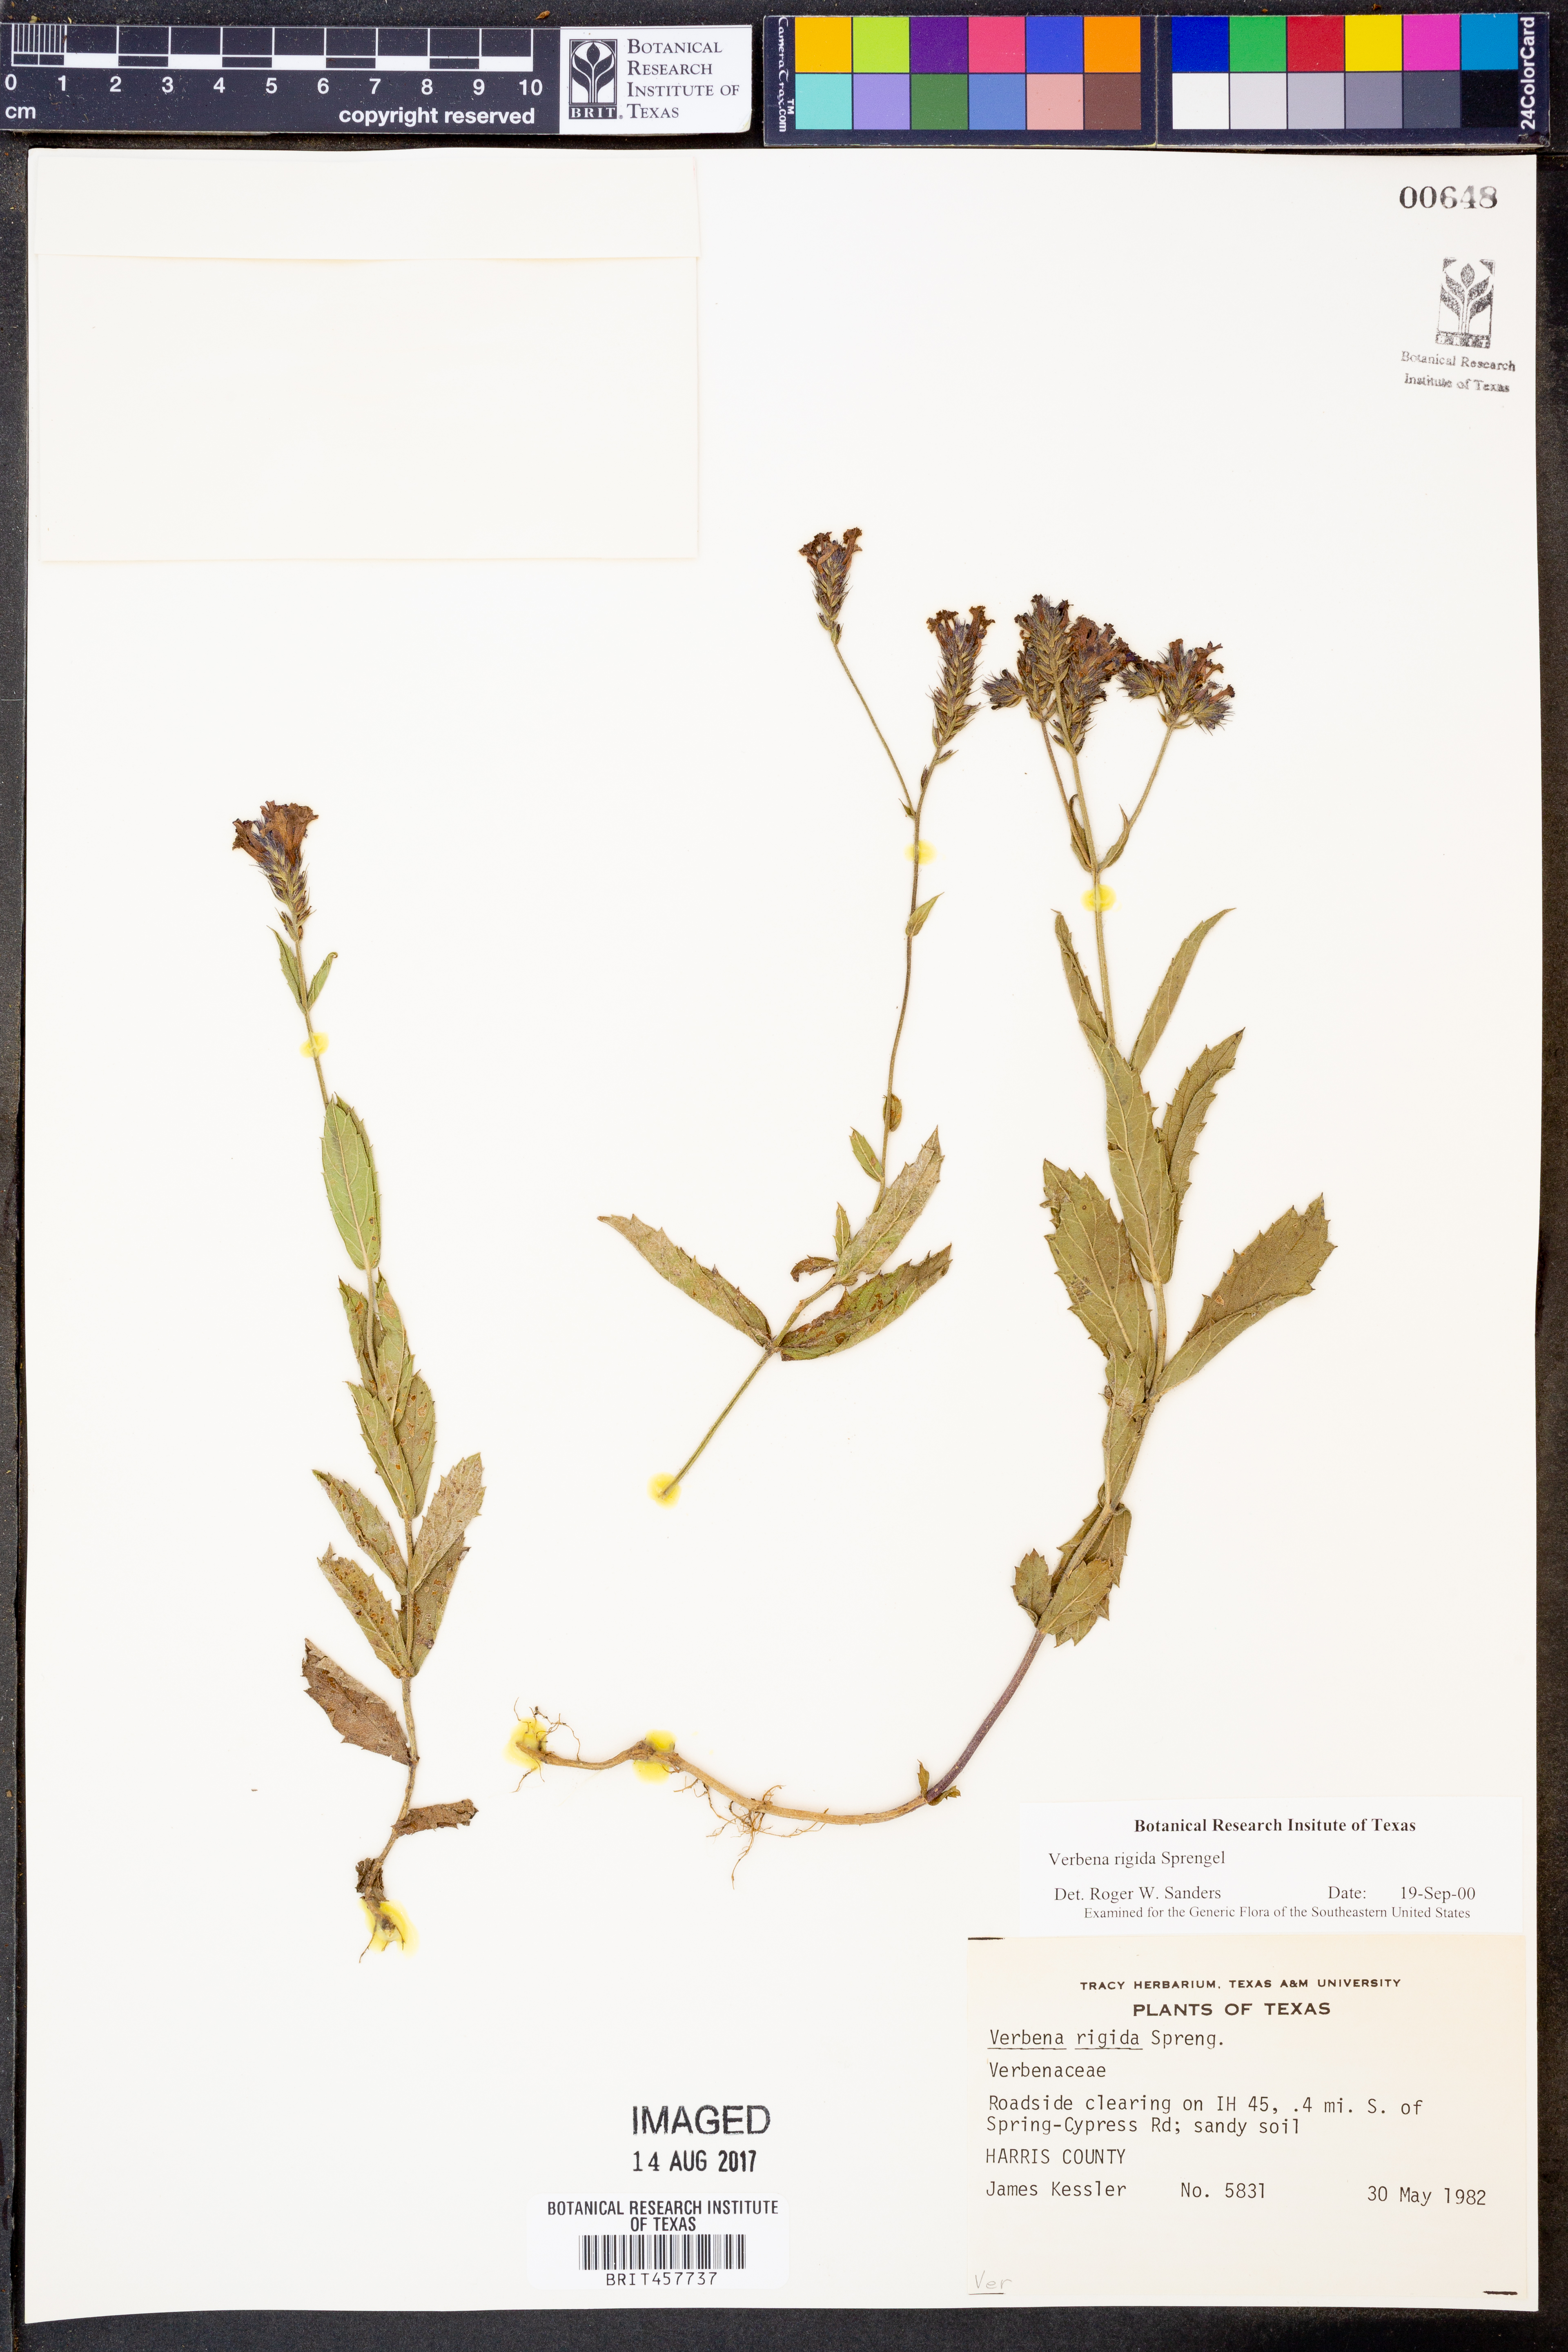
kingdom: Plantae
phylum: Tracheophyta
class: Magnoliopsida
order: Lamiales
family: Verbenaceae
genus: Verbena
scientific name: Verbena rigida
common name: Slender vervain
